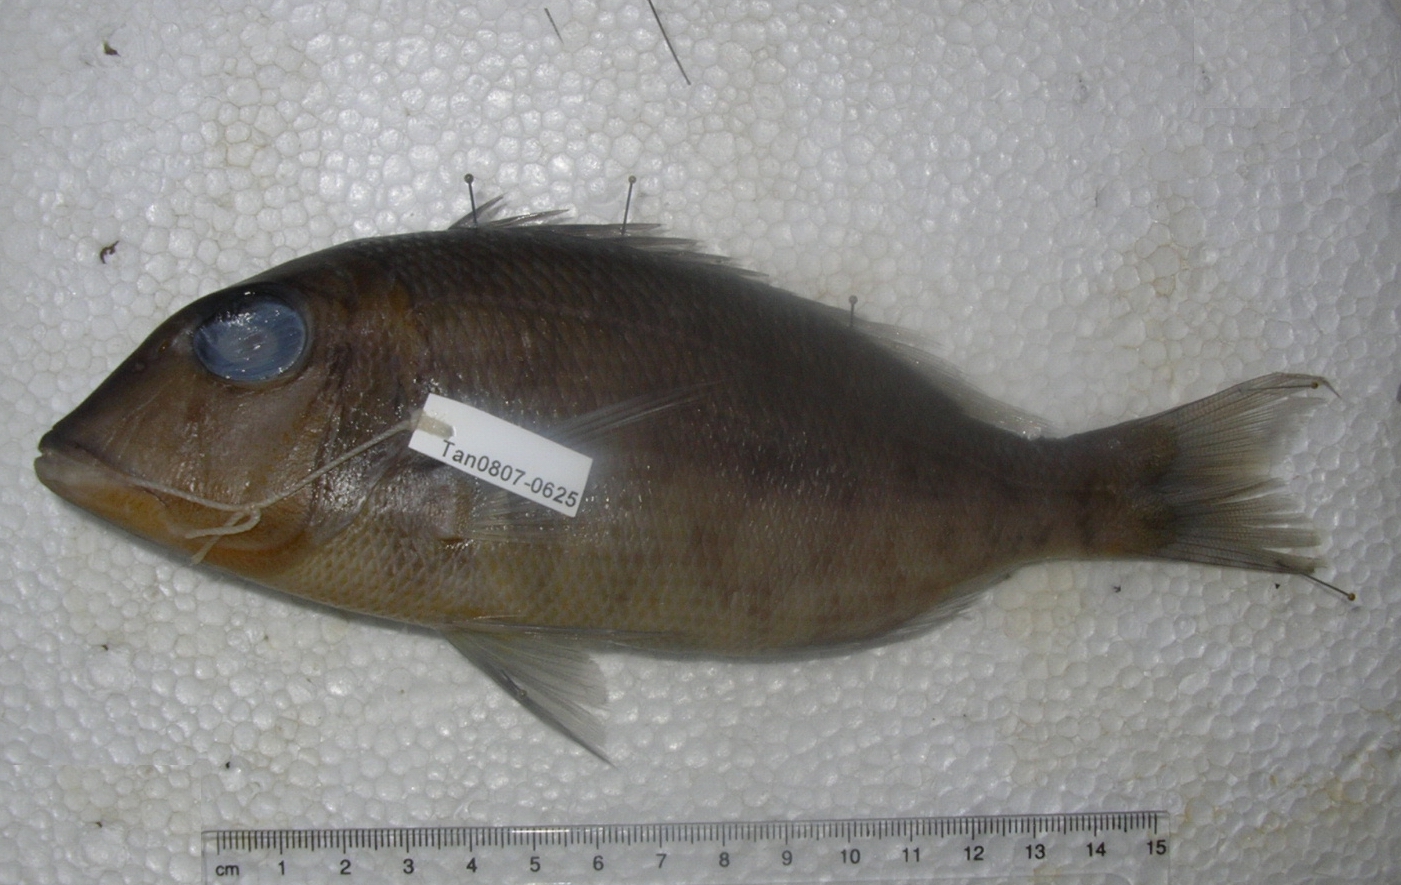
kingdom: Animalia
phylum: Chordata
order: Perciformes
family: Lethrinidae
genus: Lethrinus
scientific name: Lethrinus nebulosus
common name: Spangled emperor
